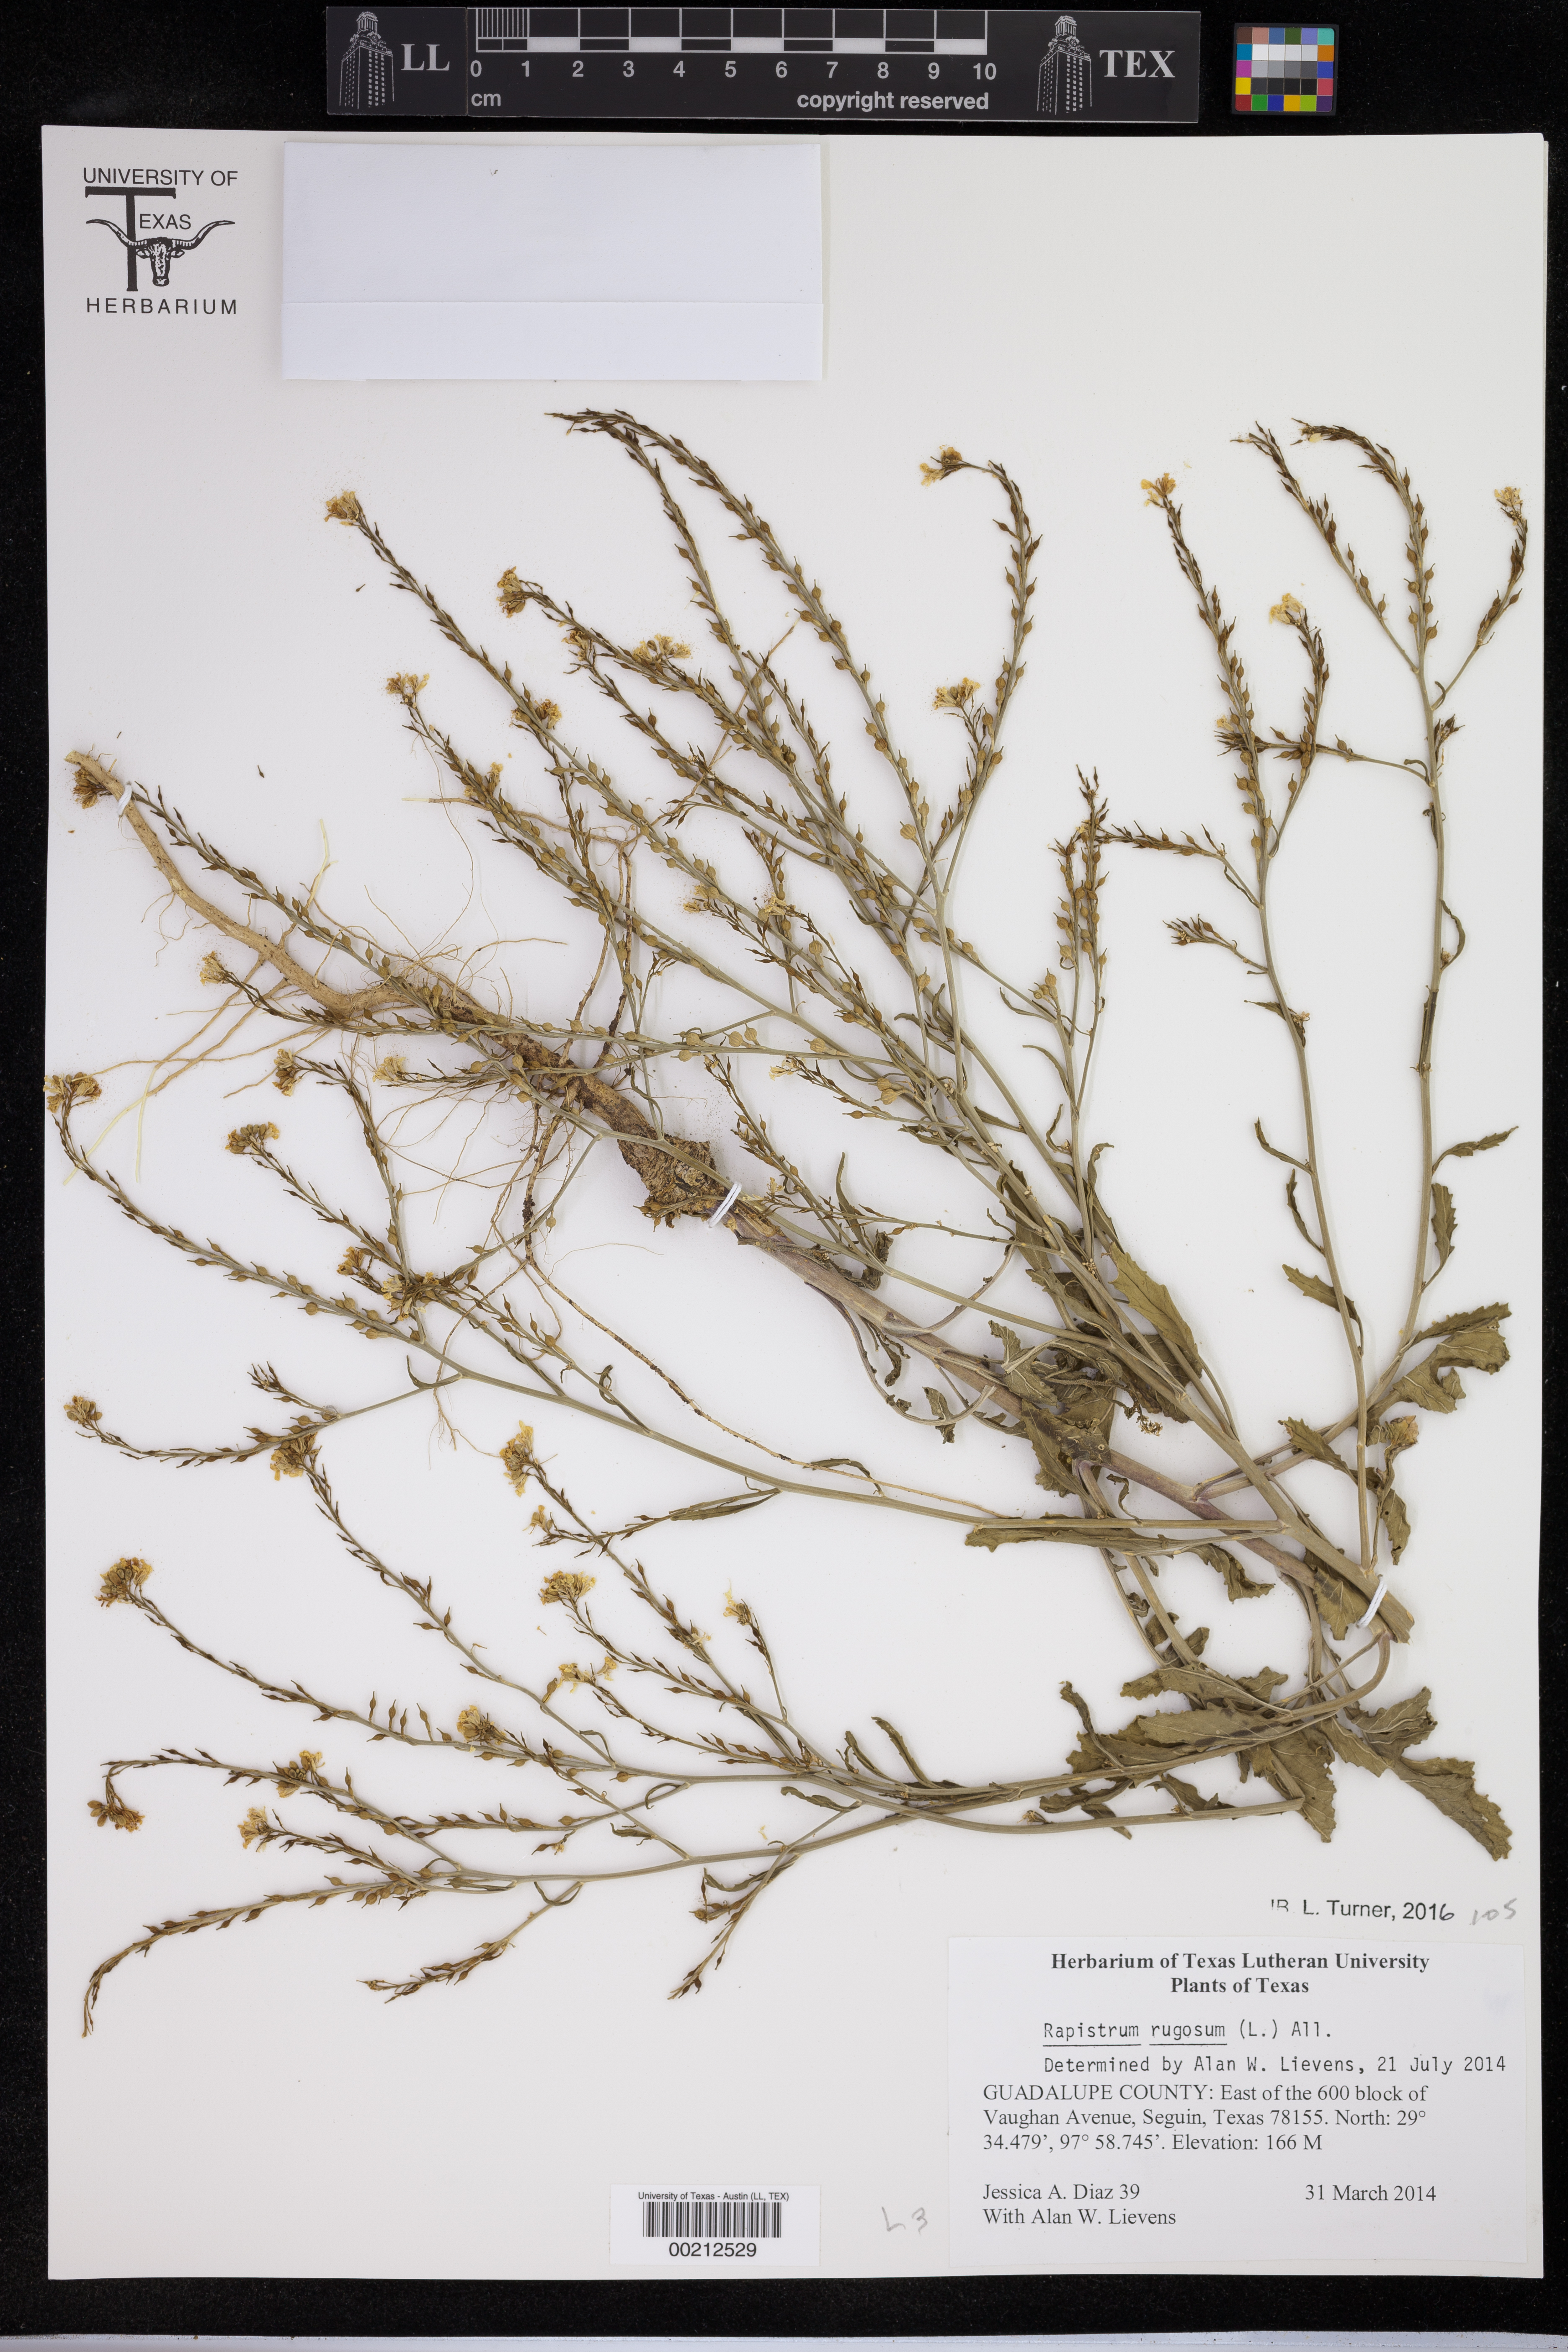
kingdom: Plantae
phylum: Tracheophyta
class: Magnoliopsida
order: Brassicales
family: Brassicaceae
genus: Rapistrum
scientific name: Rapistrum rugosum
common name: Annual bastardcabbage
